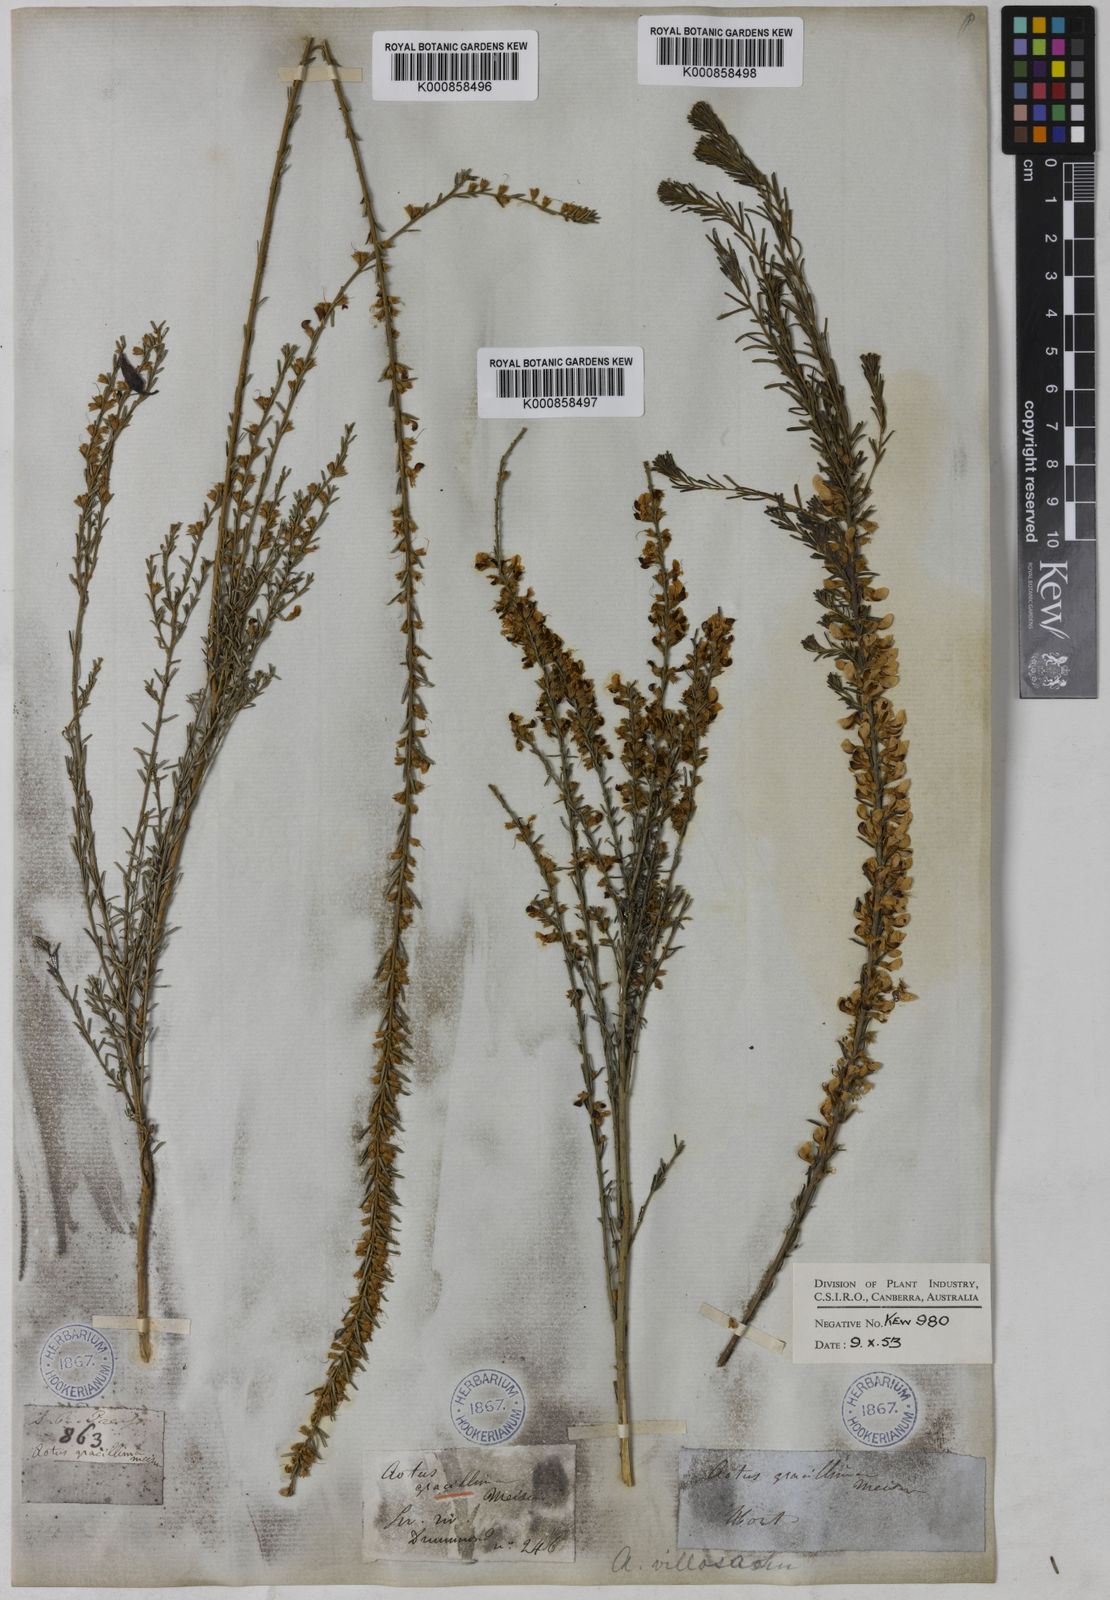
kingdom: Plantae
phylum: Tracheophyta
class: Magnoliopsida
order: Fabales
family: Fabaceae
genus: Aotus
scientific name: Aotus gracillima
